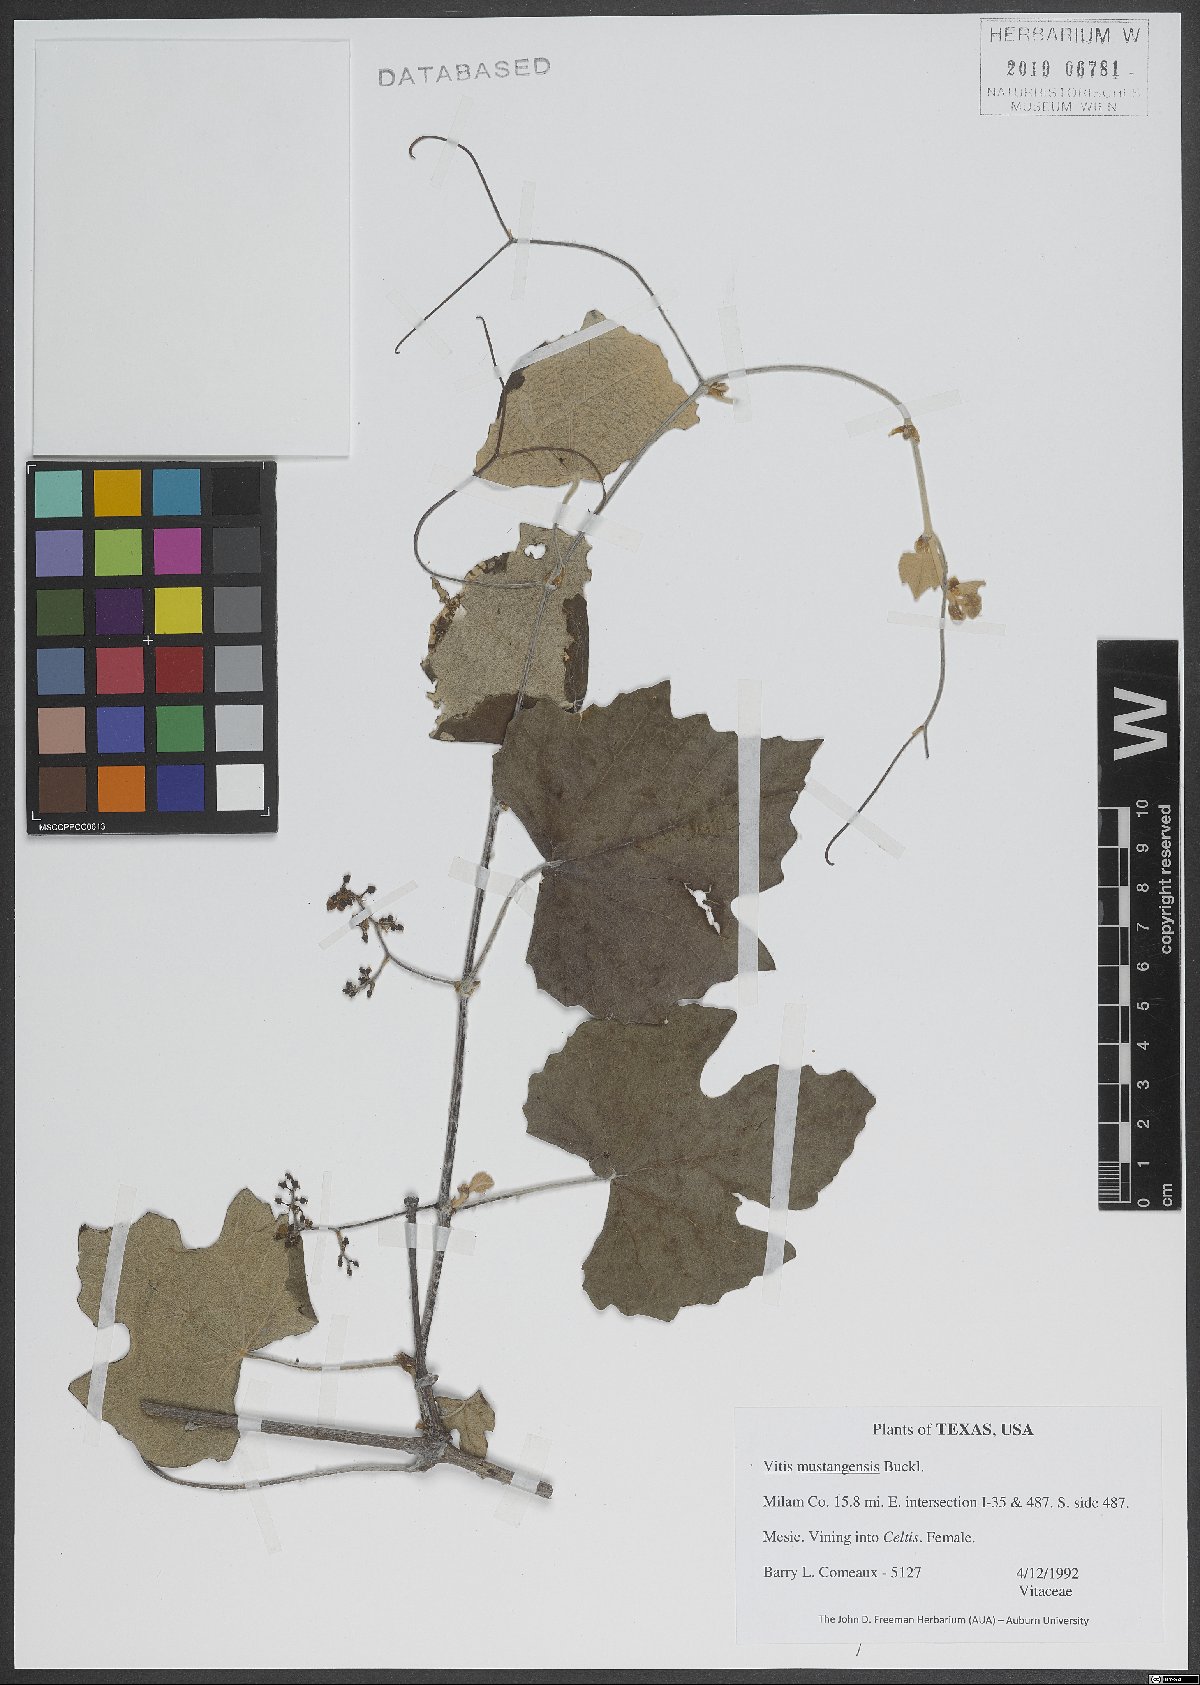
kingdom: Plantae
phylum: Tracheophyta
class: Magnoliopsida
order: Vitales
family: Vitaceae
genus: Vitis
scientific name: Vitis mustangensis
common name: Mustang grape
